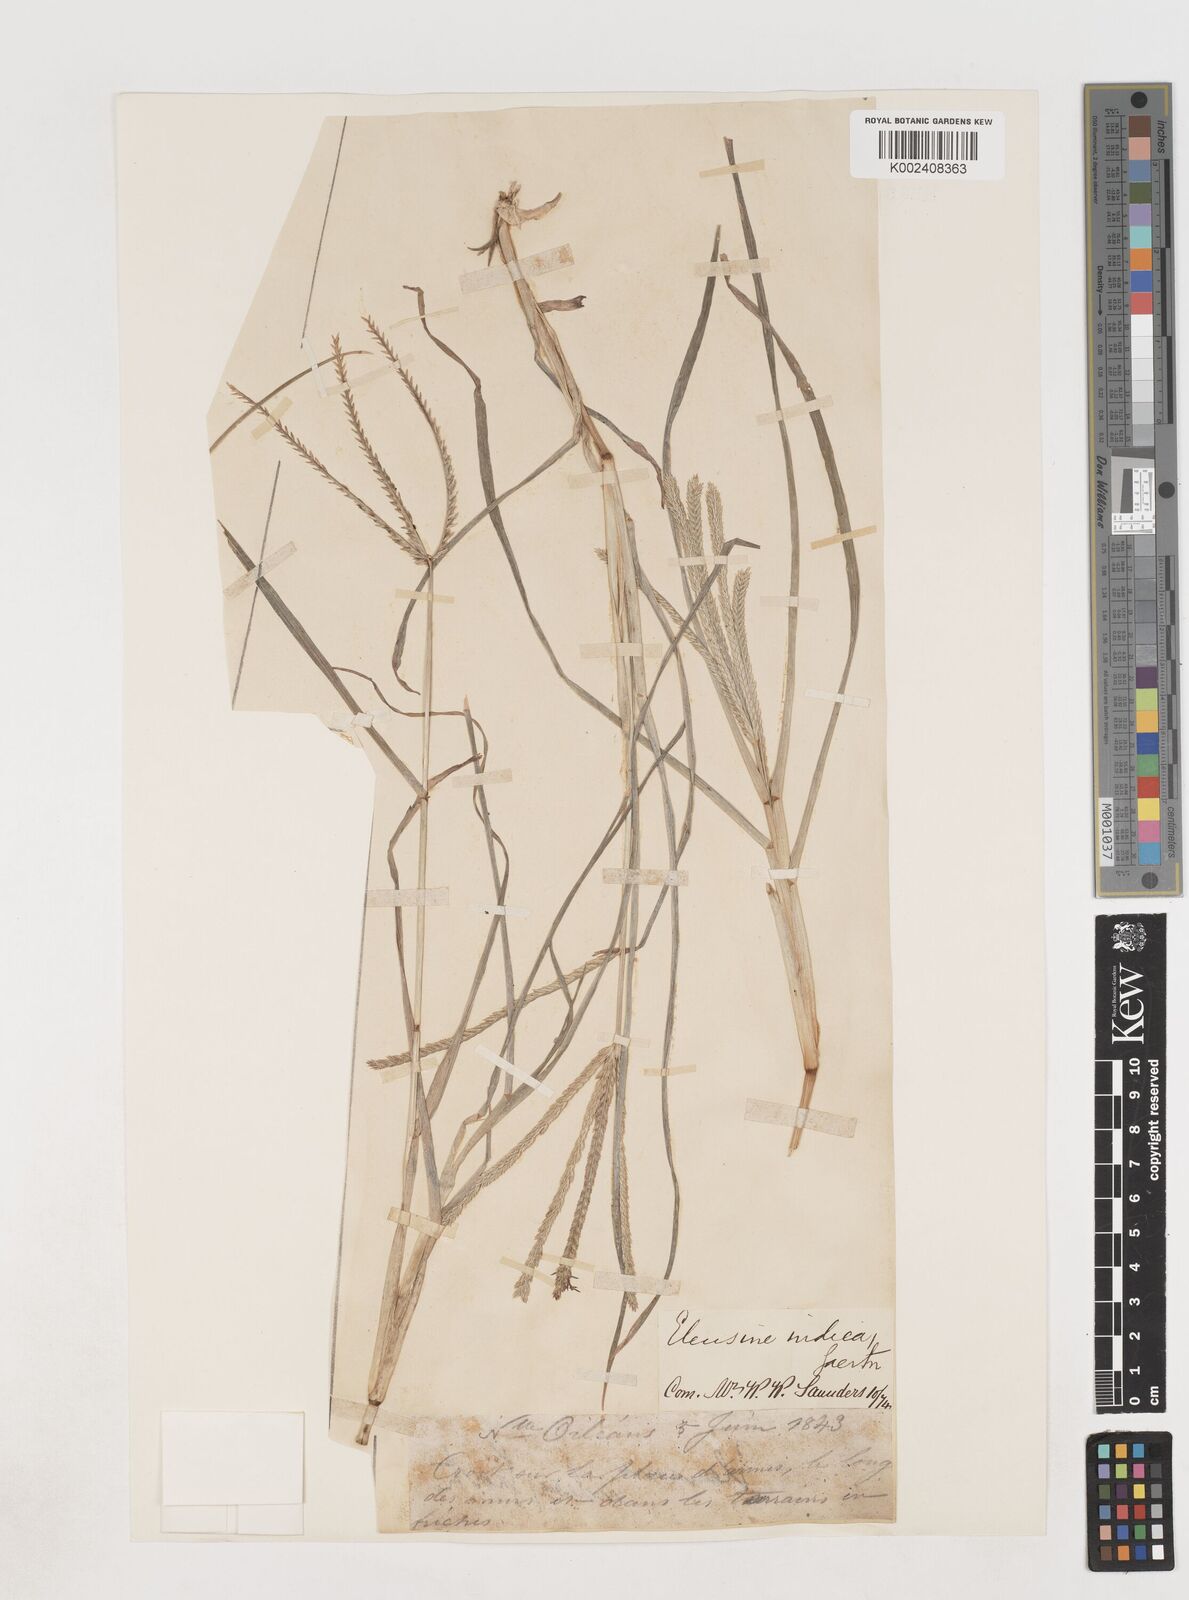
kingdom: Plantae
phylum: Tracheophyta
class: Liliopsida
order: Poales
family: Poaceae
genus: Eleusine
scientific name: Eleusine indica
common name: Yard-grass
